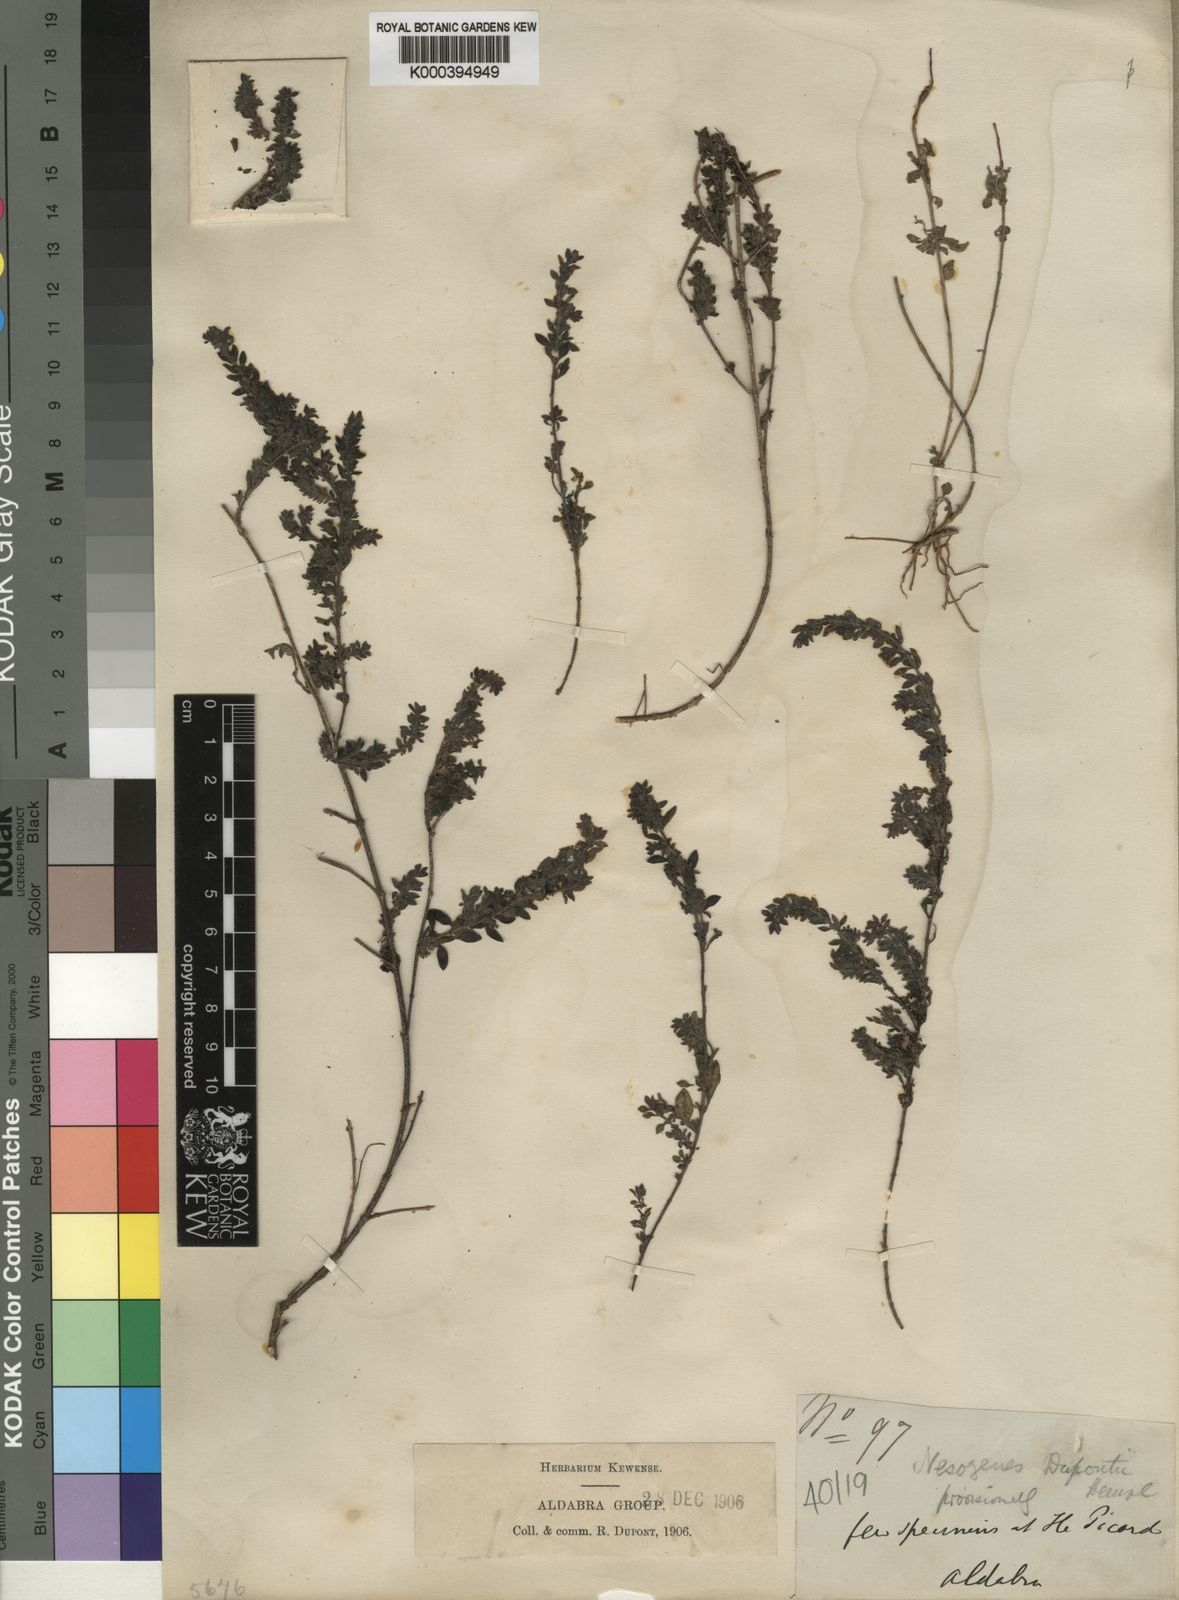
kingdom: Plantae
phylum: Tracheophyta
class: Magnoliopsida
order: Lamiales
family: Orobanchaceae
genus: Nesogenes
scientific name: Nesogenes prostrata
